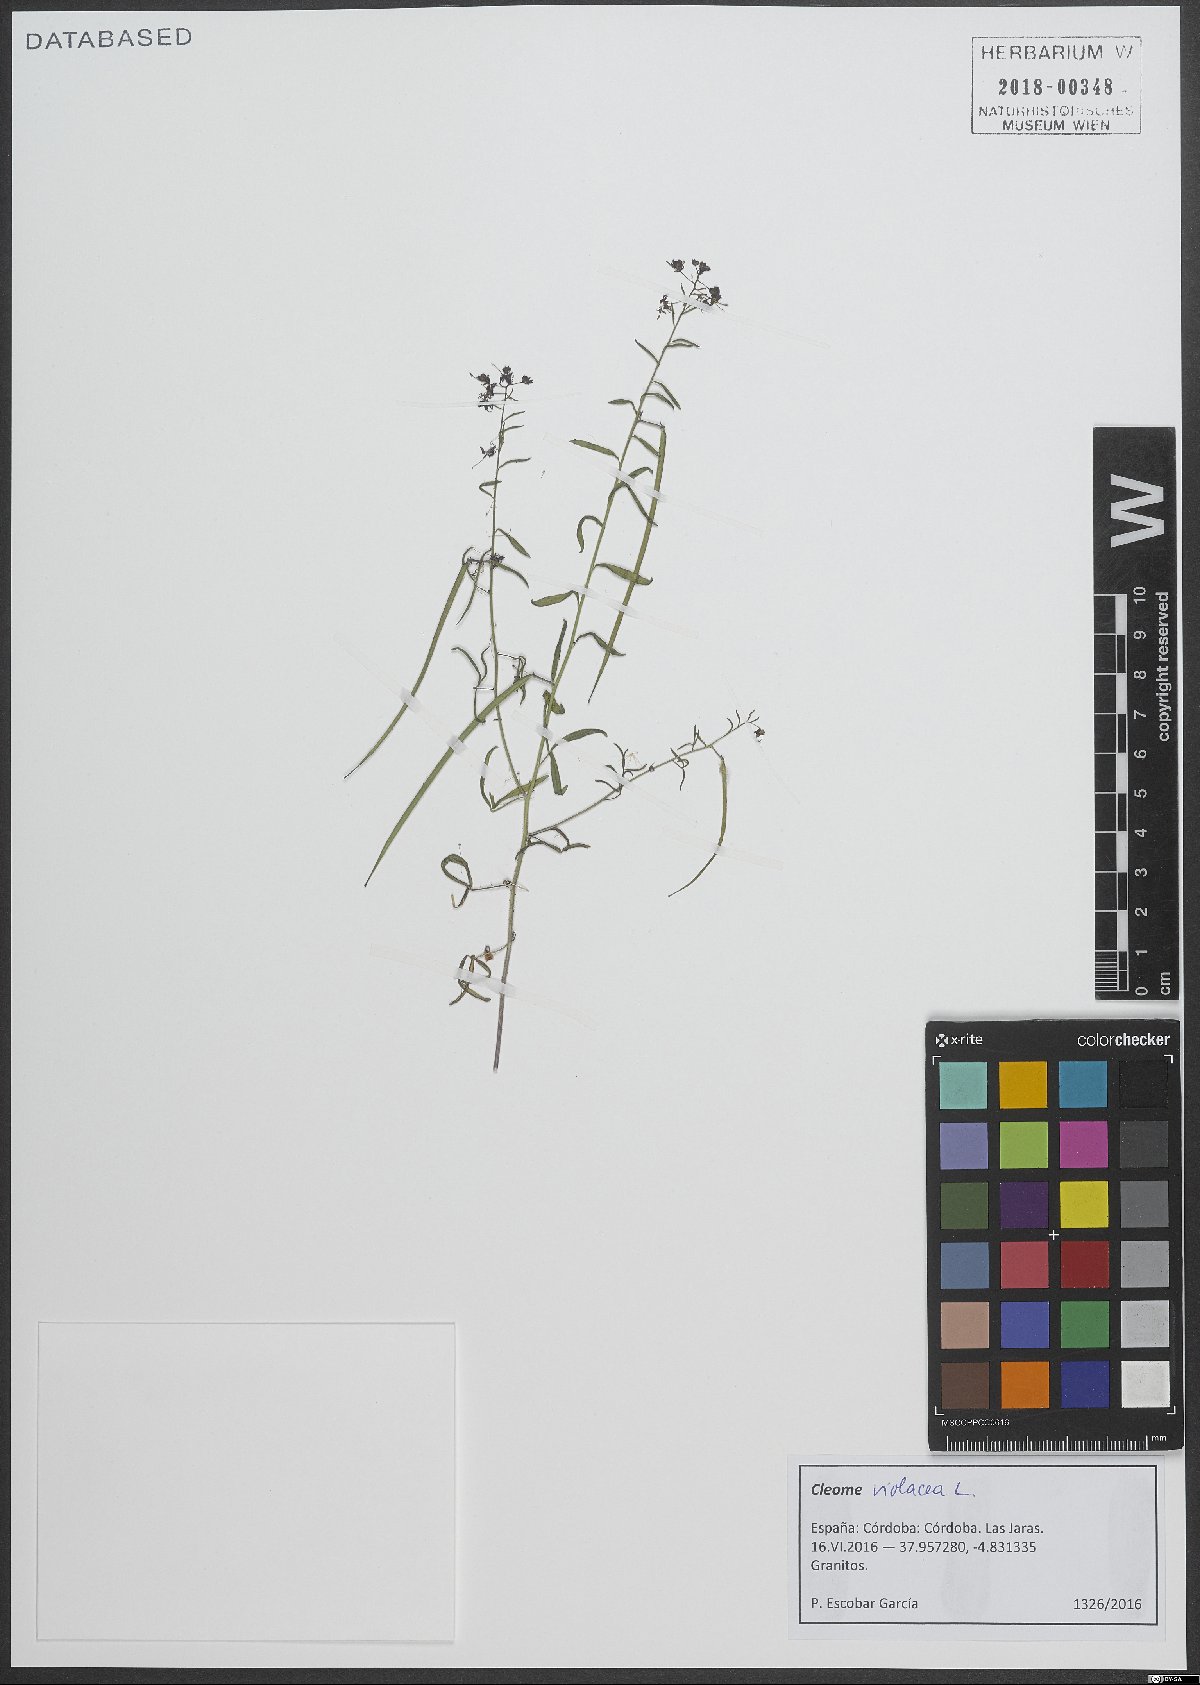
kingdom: Plantae
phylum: Tracheophyta
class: Magnoliopsida
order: Brassicales
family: Cleomaceae
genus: Cleome
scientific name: Cleome violacea
